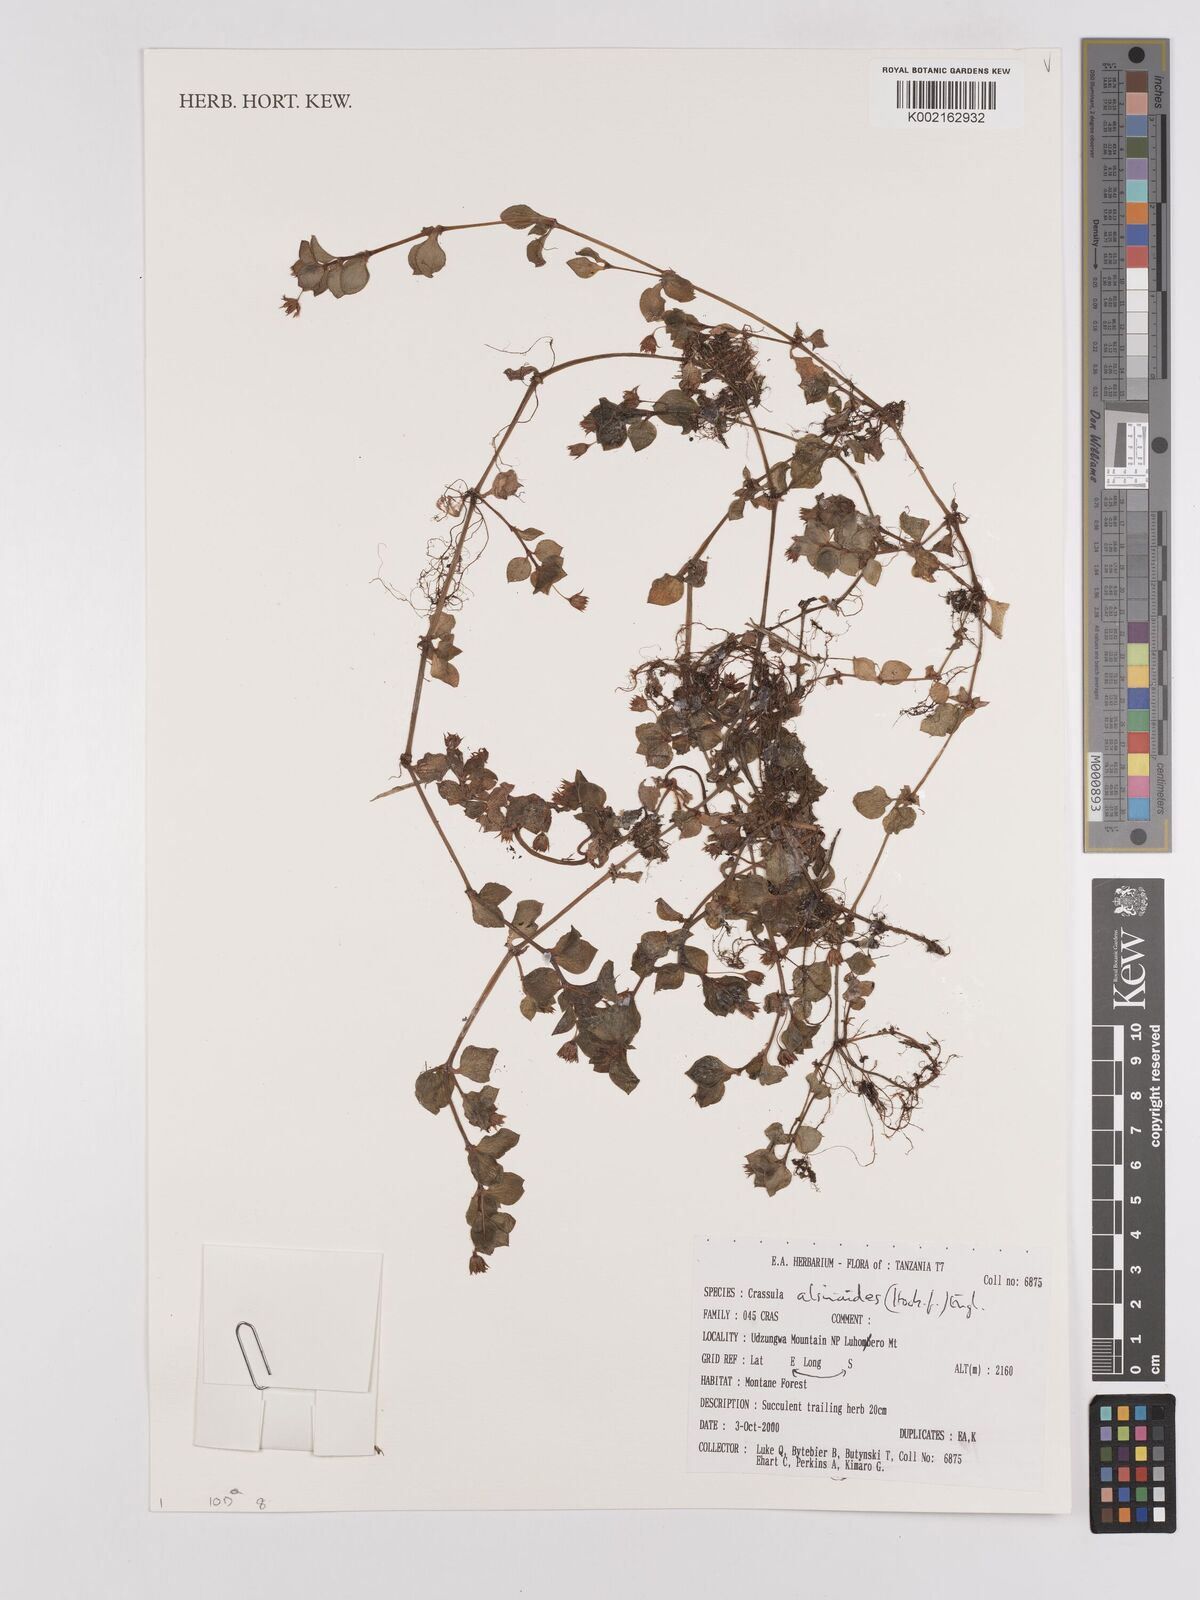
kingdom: Plantae
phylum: Tracheophyta
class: Magnoliopsida
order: Saxifragales
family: Crassulaceae
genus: Crassula
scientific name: Crassula alsinoides
